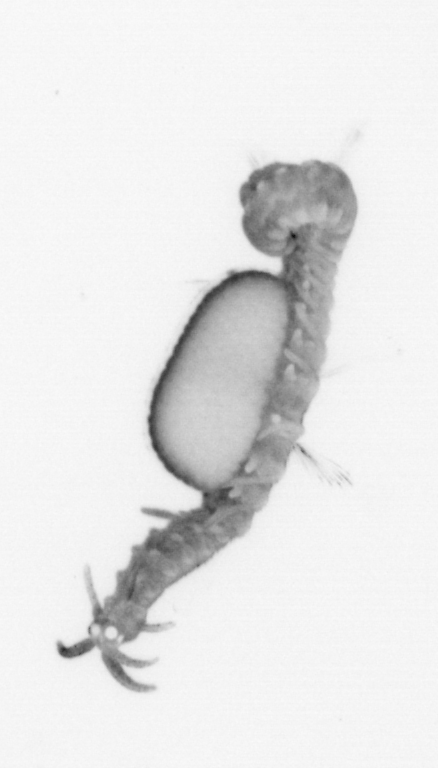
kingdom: Animalia
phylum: Annelida
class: Polychaeta
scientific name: Polychaeta
